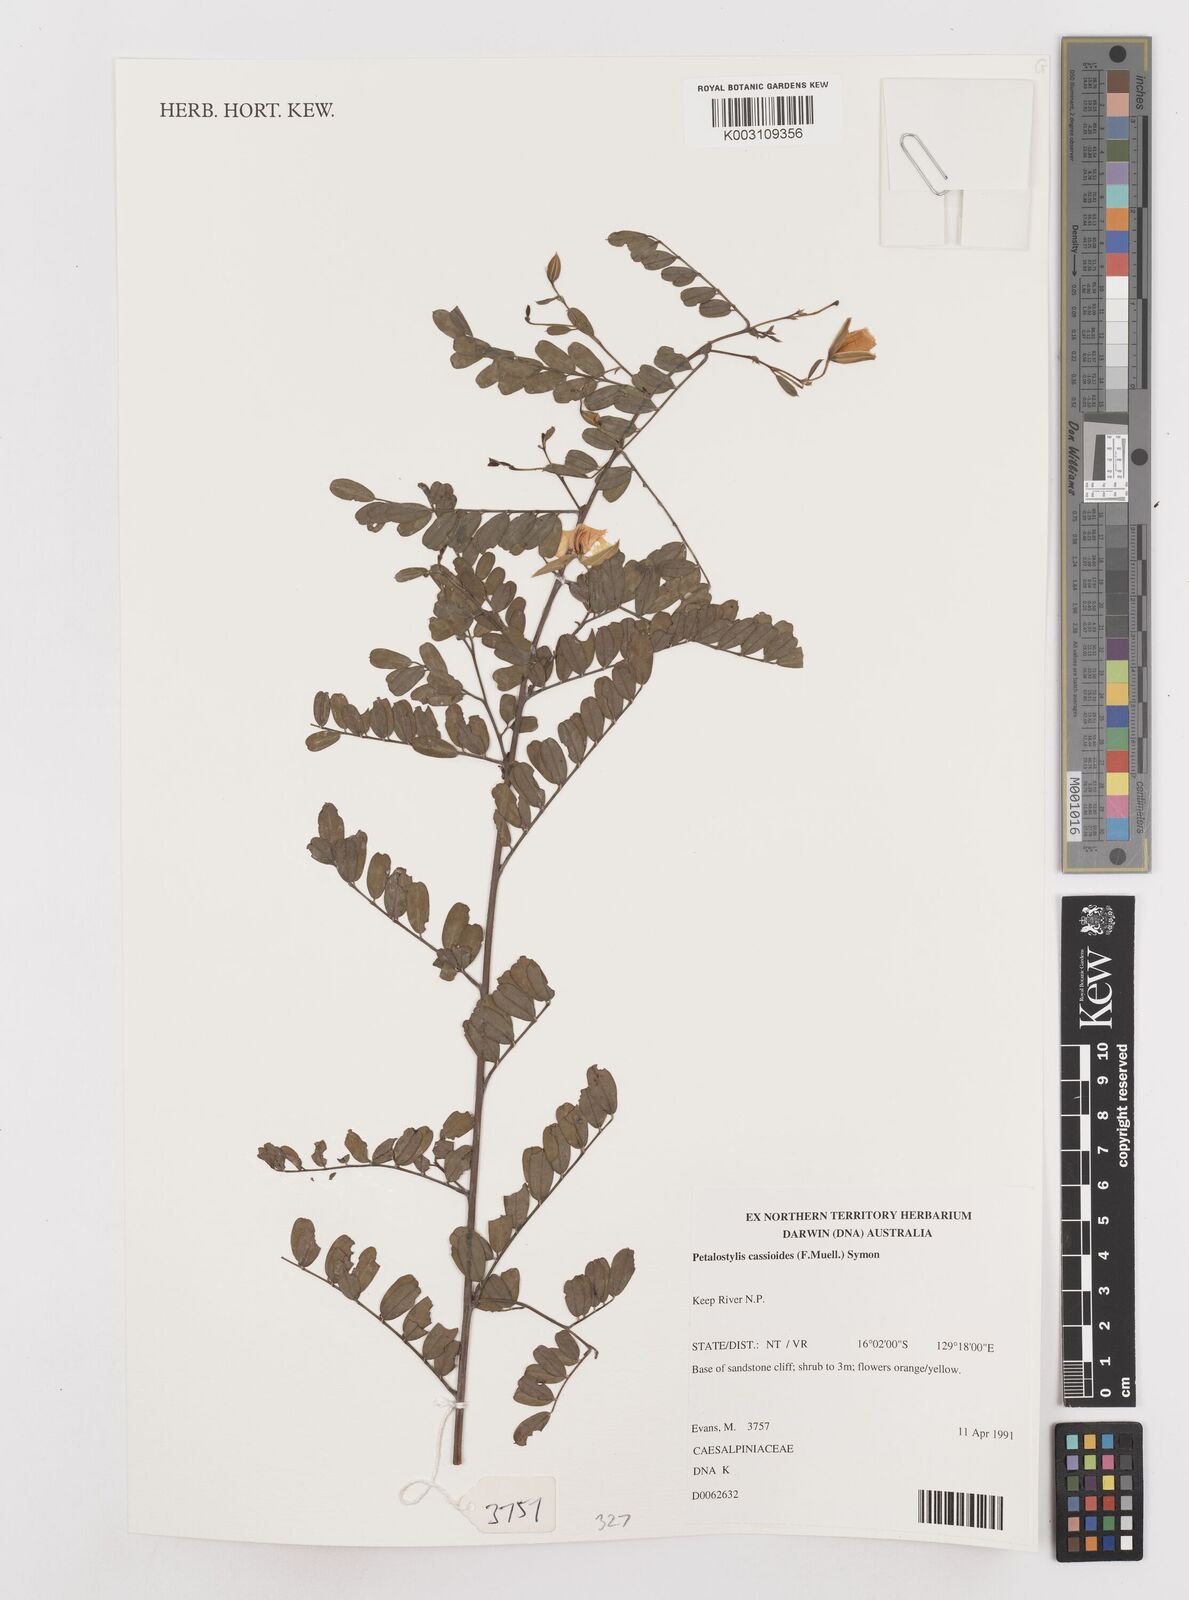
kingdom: Plantae
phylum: Tracheophyta
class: Magnoliopsida
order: Fabales
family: Fabaceae
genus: Petalostylis
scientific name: Petalostylis cassioides
